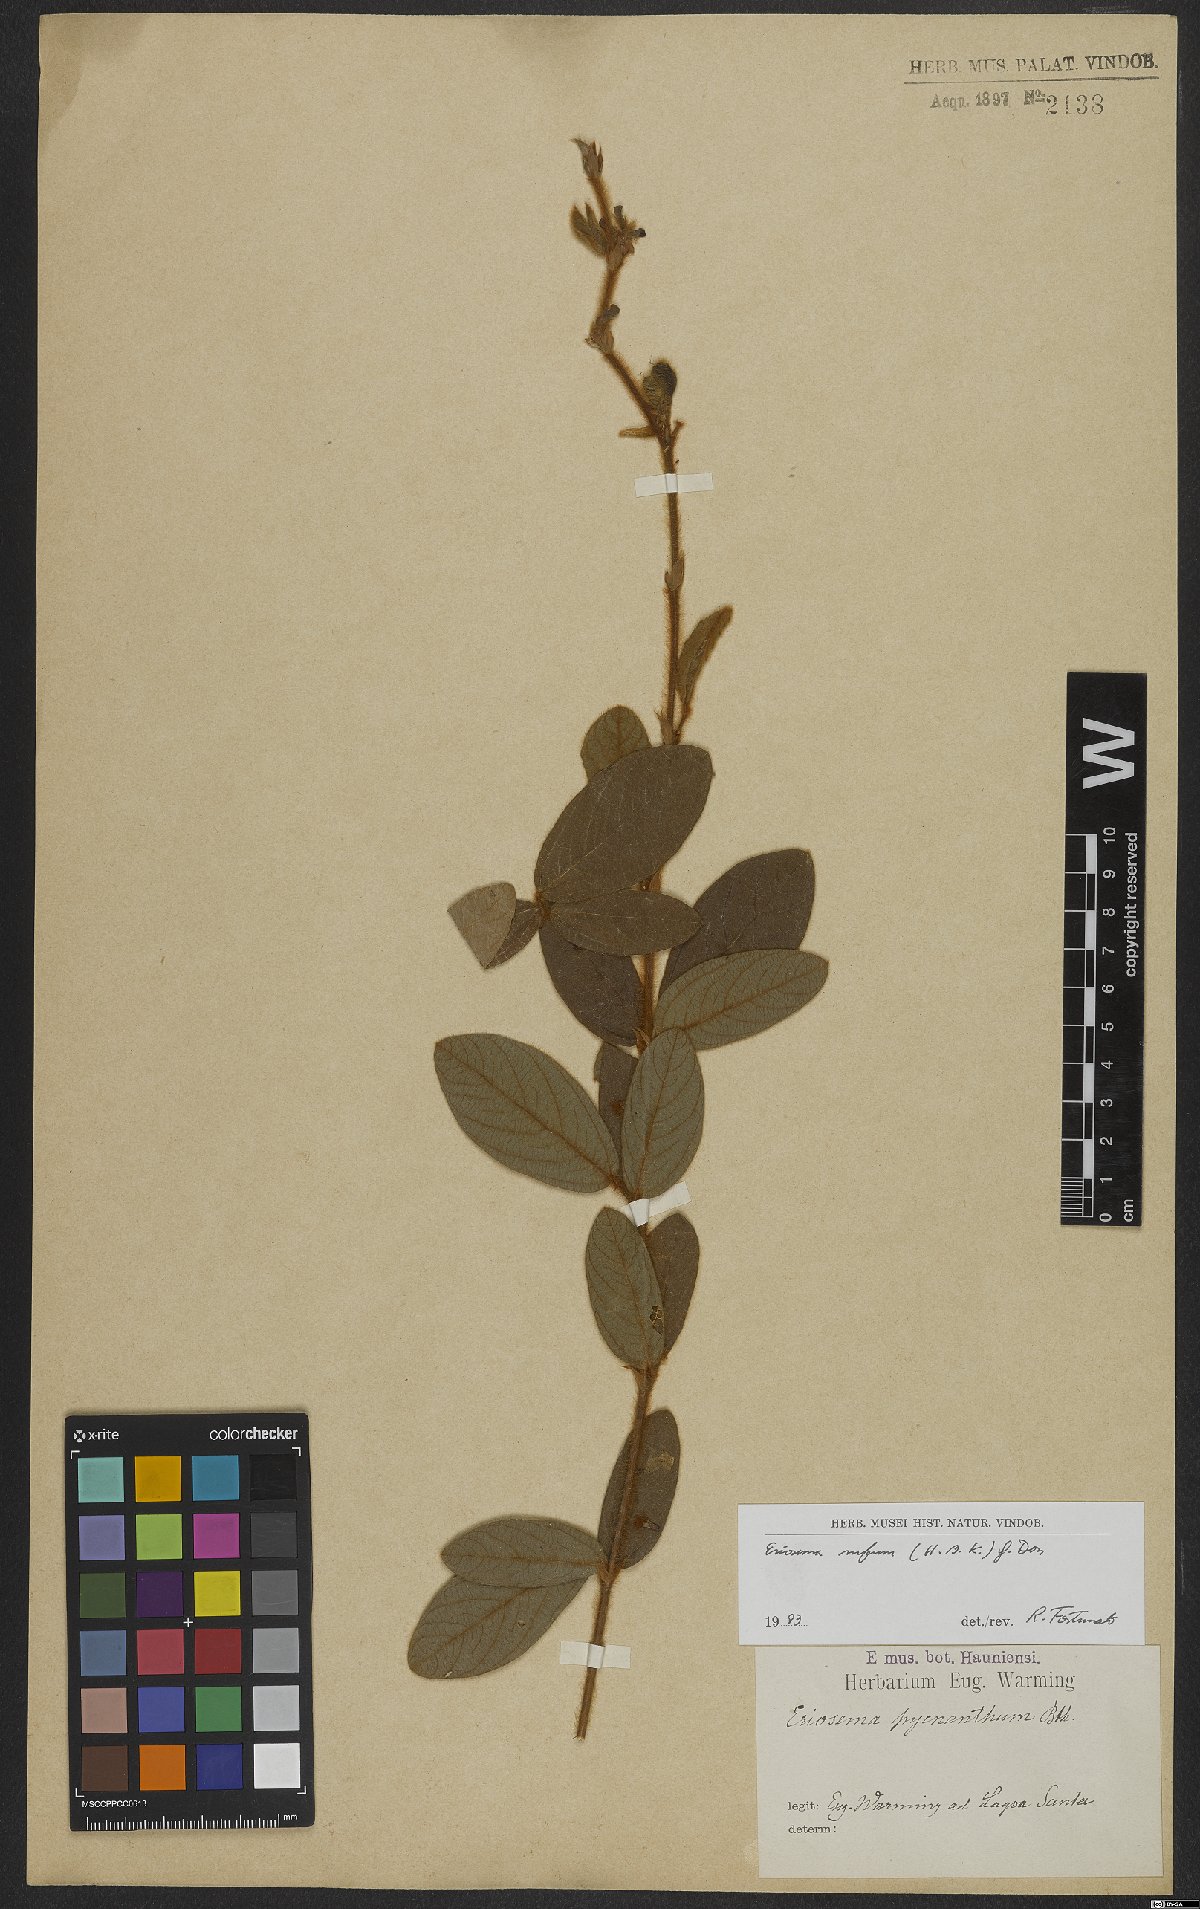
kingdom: Plantae
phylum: Tracheophyta
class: Magnoliopsida
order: Fabales
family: Fabaceae
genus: Eriosema
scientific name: Eriosema rufum
